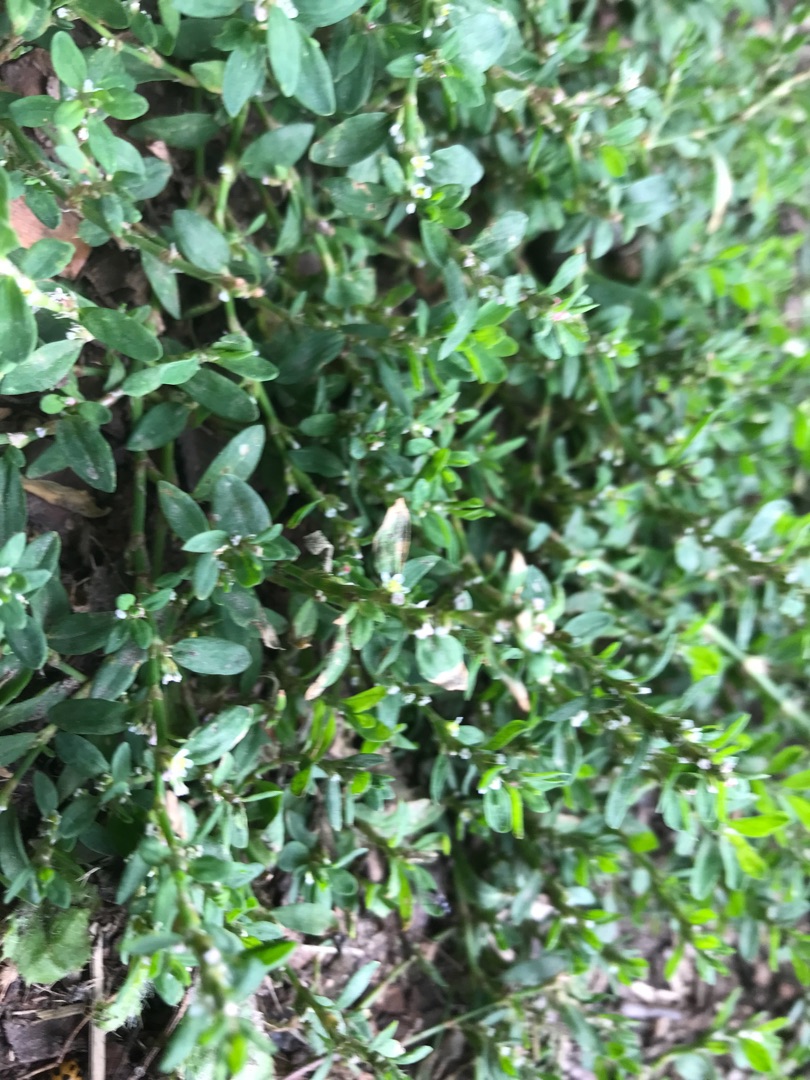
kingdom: Plantae
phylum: Tracheophyta
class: Magnoliopsida
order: Caryophyllales
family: Polygonaceae
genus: Polygonum
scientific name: Polygonum arenastrum
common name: Liggende vej-pileurt
